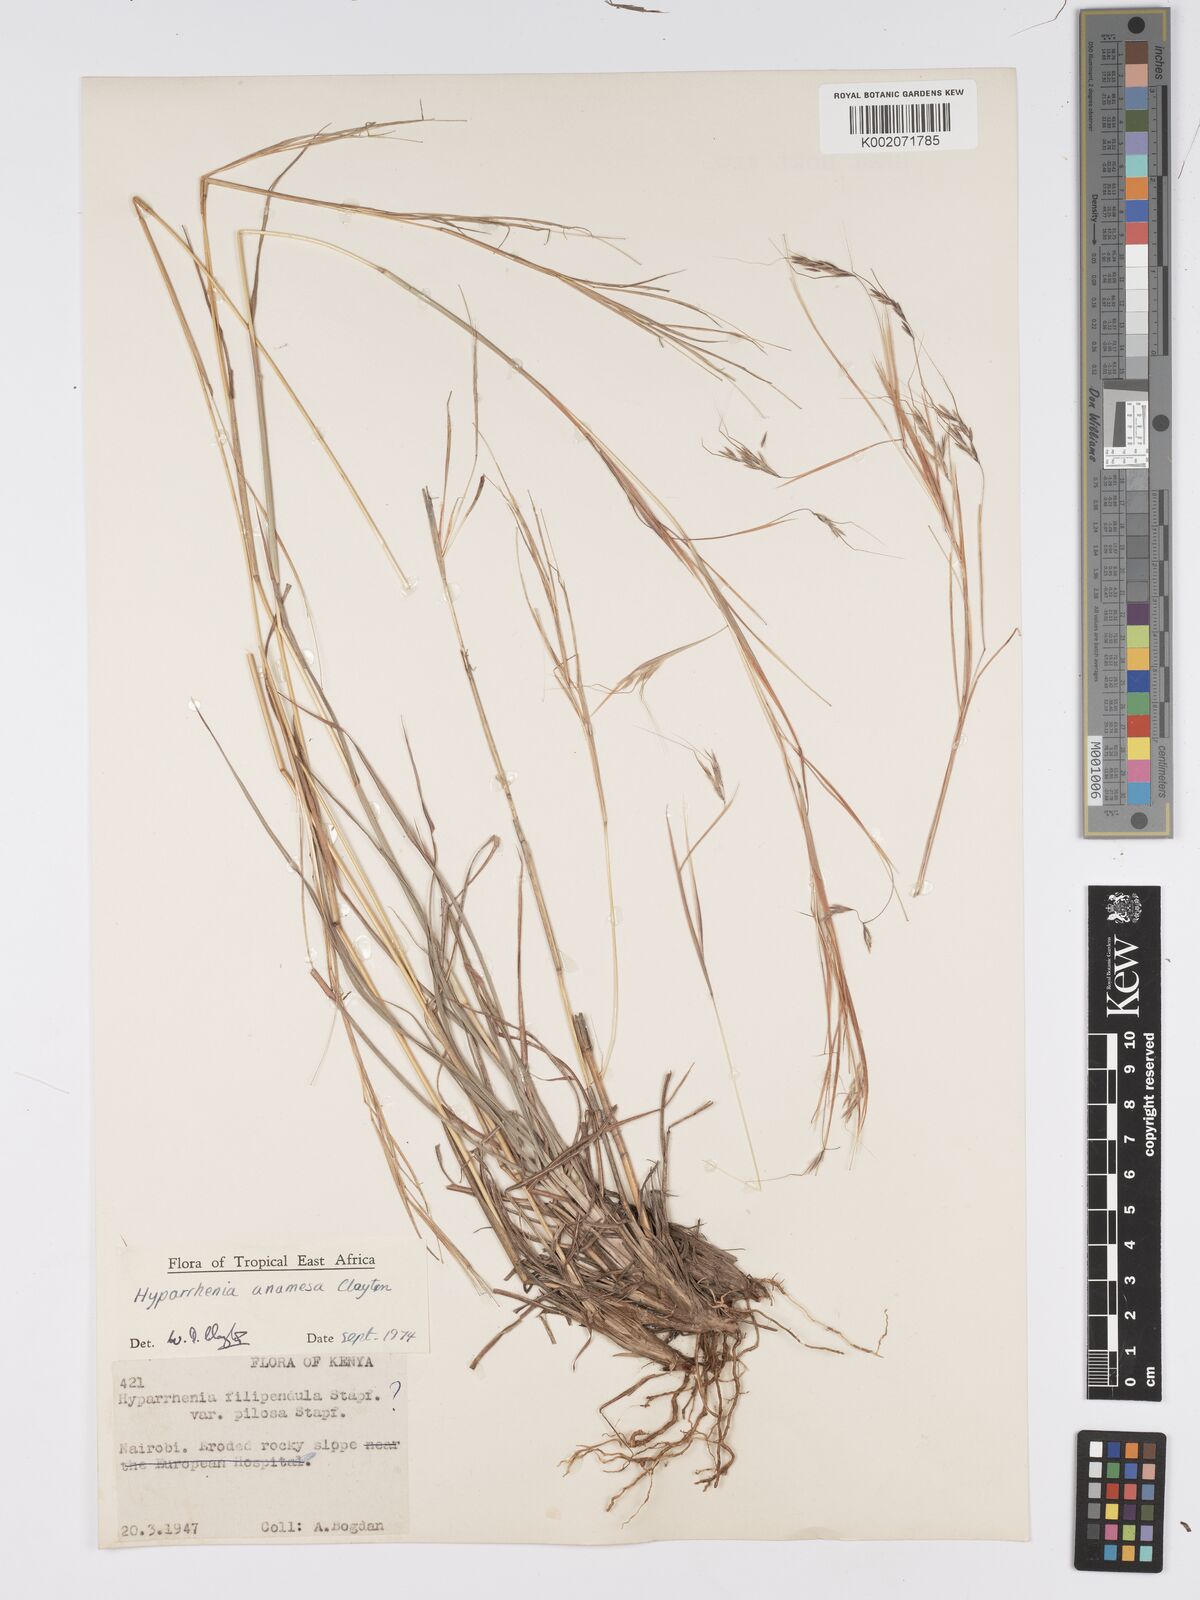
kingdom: Plantae
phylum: Tracheophyta
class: Liliopsida
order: Poales
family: Poaceae
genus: Hyparrhenia
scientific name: Hyparrhenia anamesa
